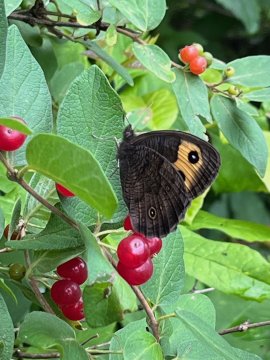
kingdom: Animalia
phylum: Arthropoda
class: Insecta
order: Lepidoptera
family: Nymphalidae
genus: Cercyonis
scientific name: Cercyonis pegala
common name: Common Wood-Nymph
